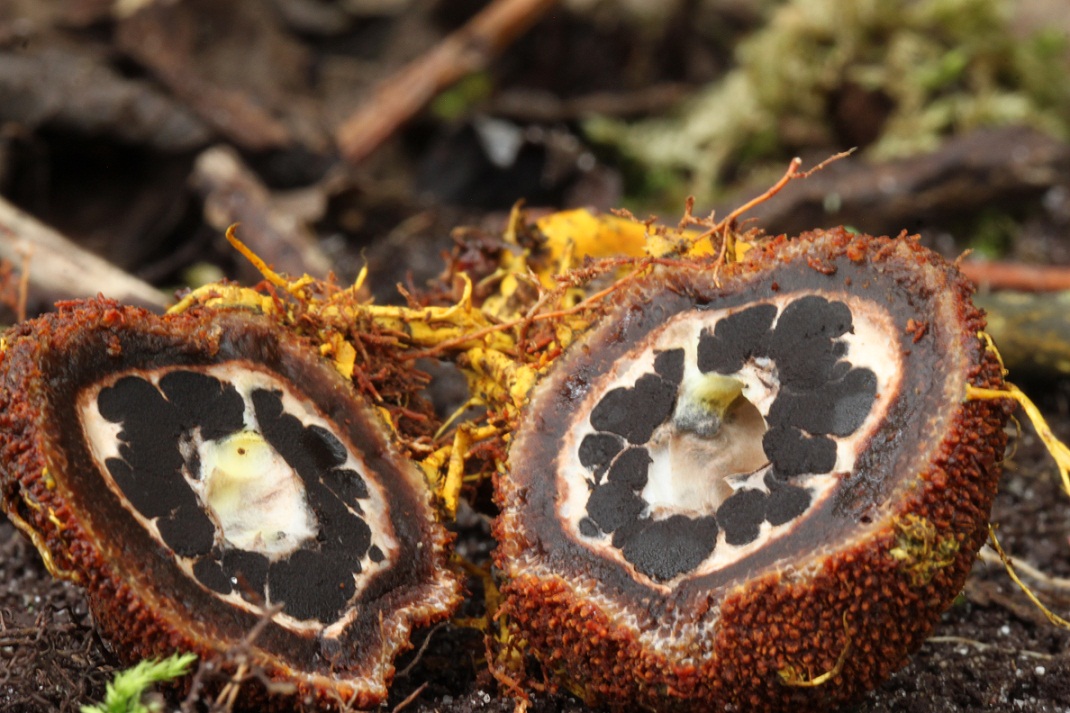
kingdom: Fungi
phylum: Ascomycota
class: Eurotiomycetes
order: Eurotiales
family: Elaphomycetaceae
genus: Elaphomyces
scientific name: Elaphomyces muricatus
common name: vortet hjortetrøffel
